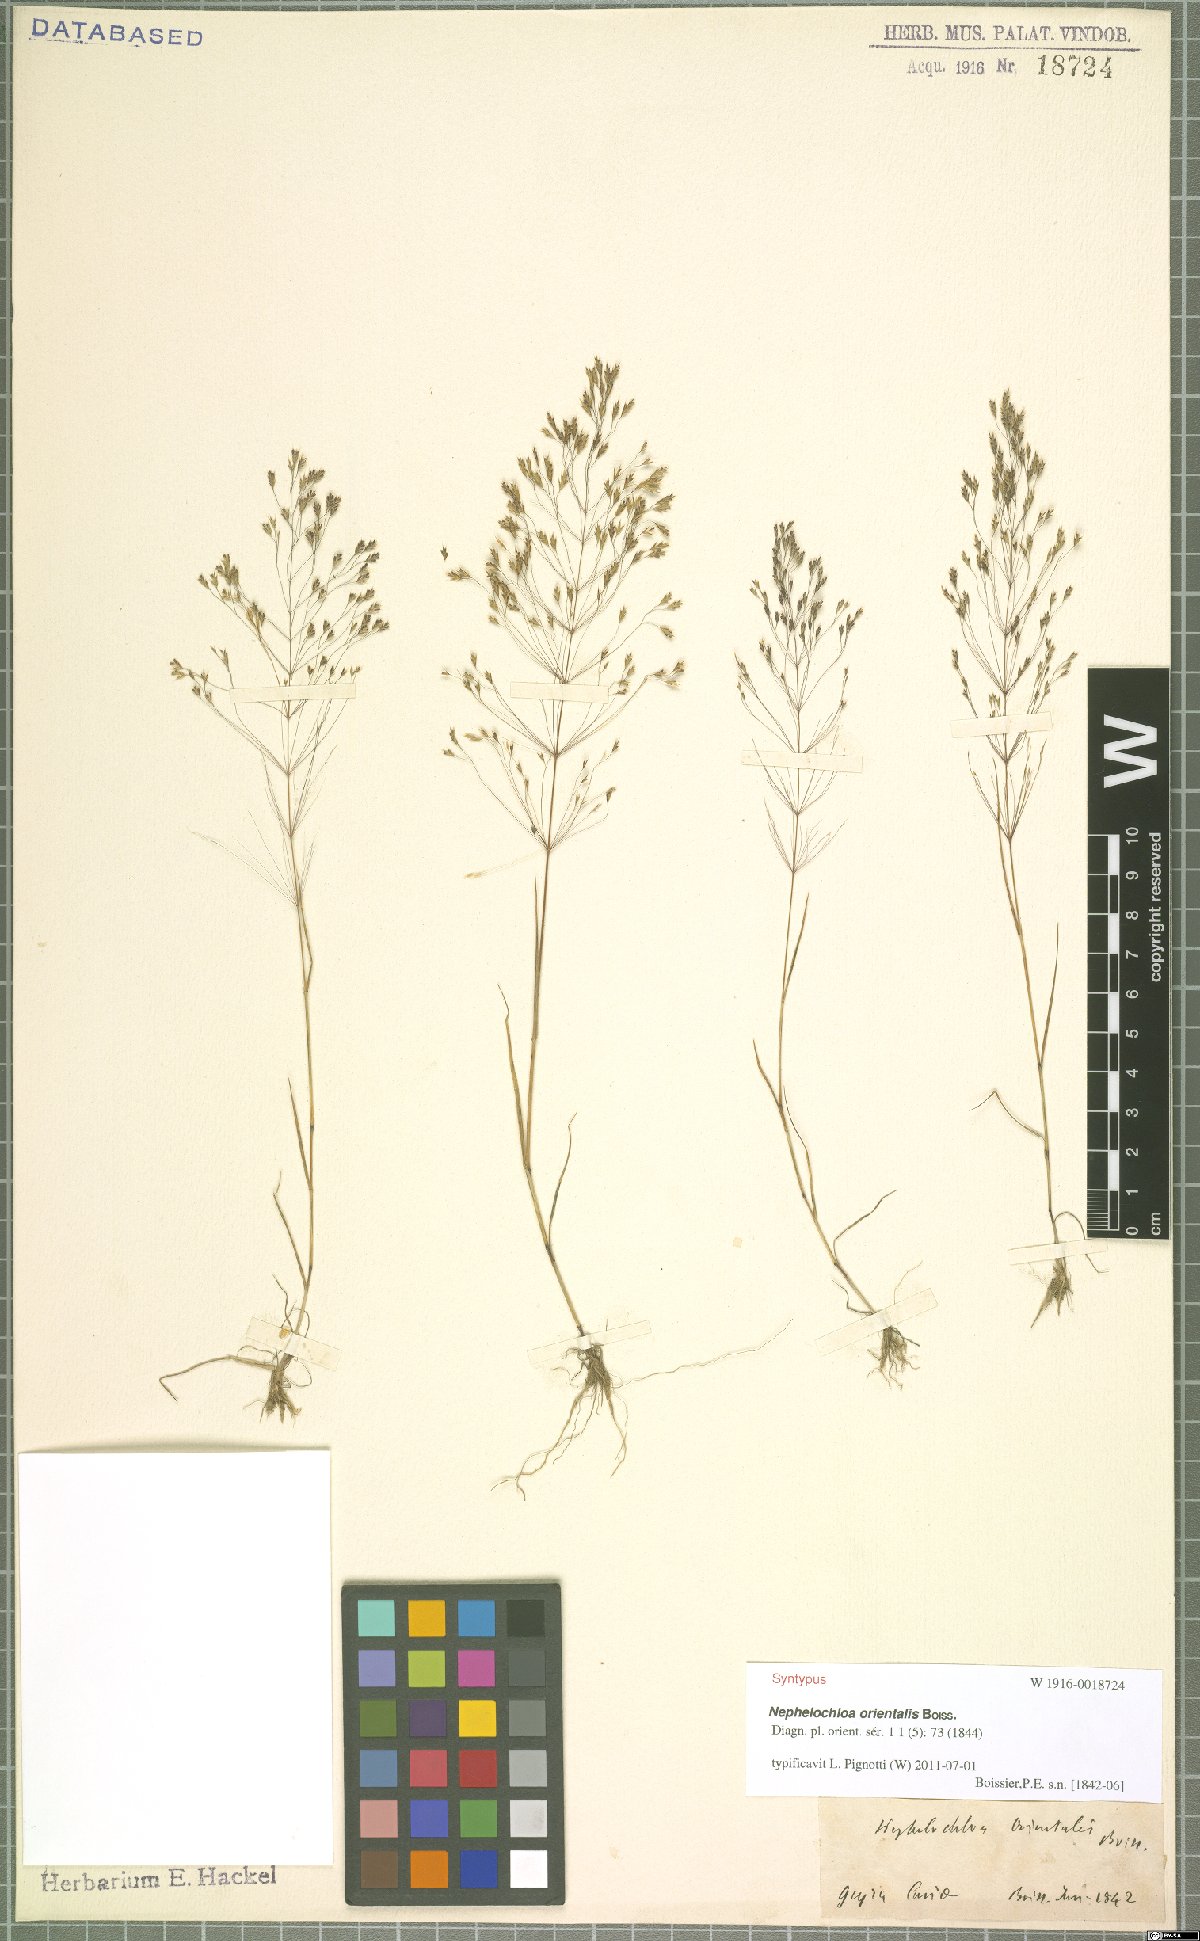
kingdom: Plantae
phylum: Tracheophyta
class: Liliopsida
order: Poales
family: Poaceae
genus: Nephelochloa
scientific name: Nephelochloa orientalis
